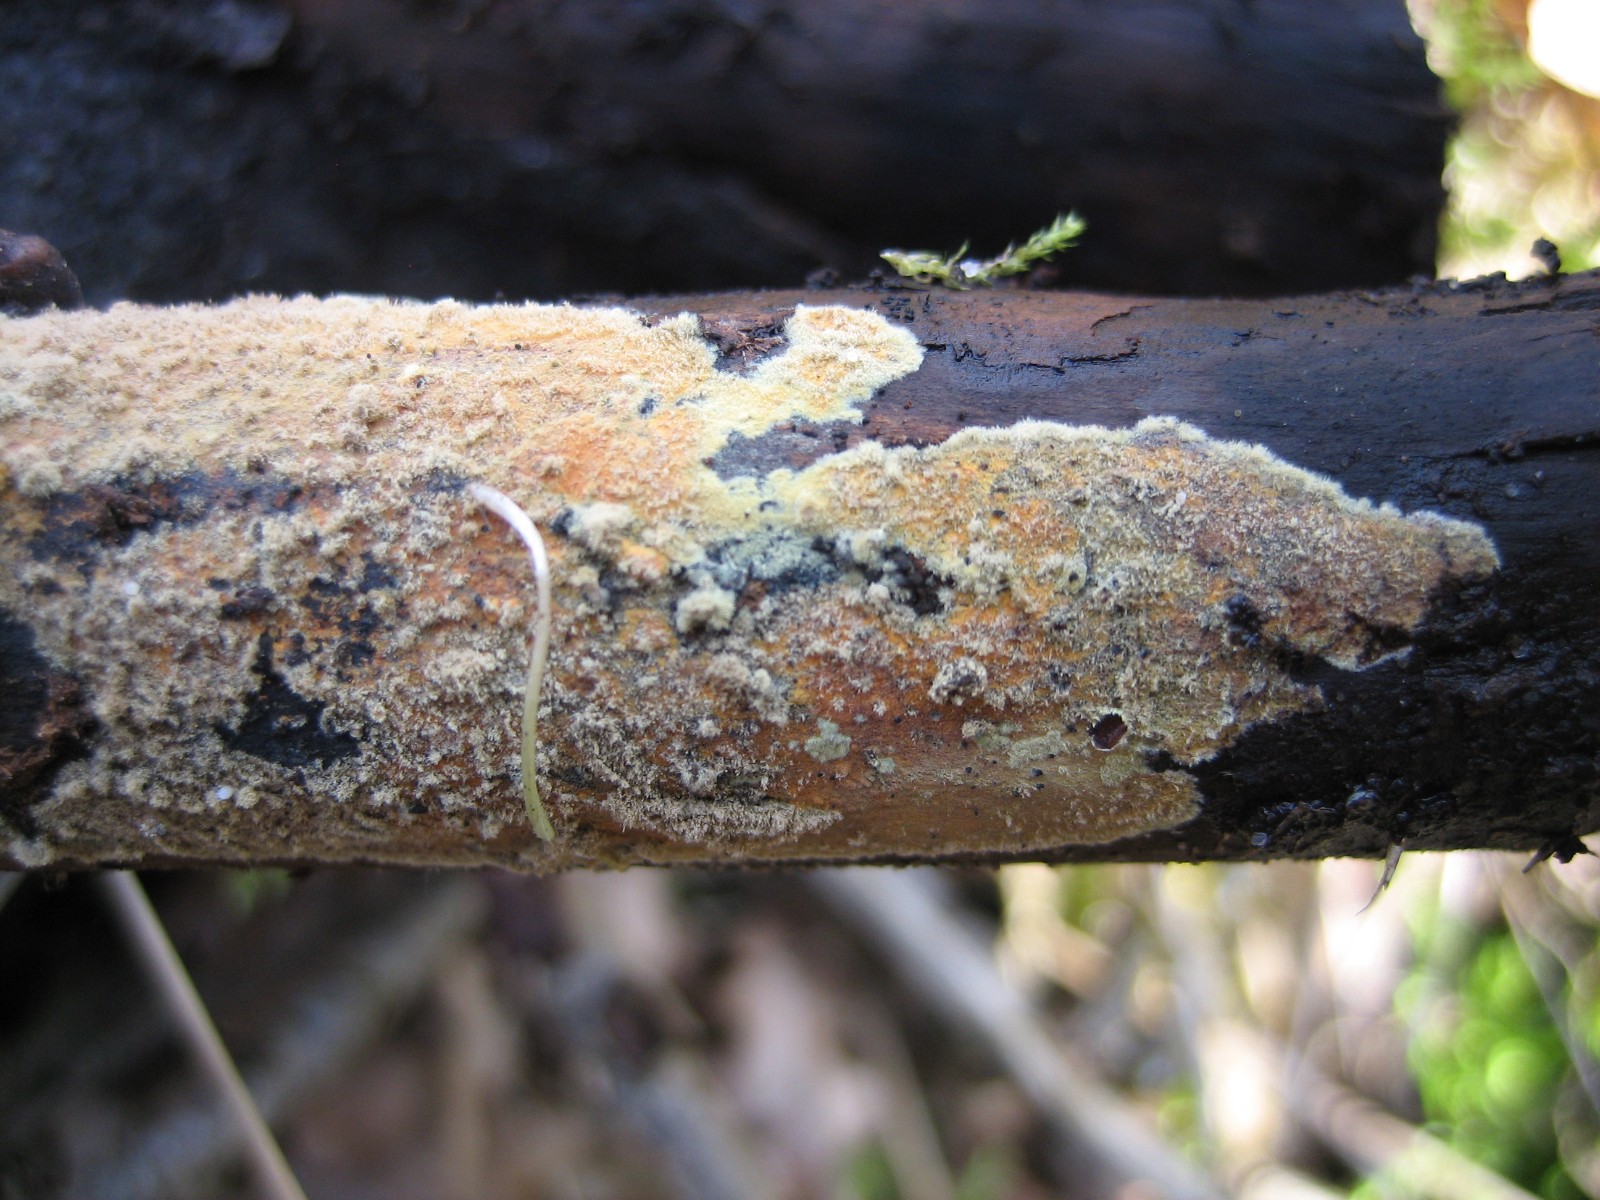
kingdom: Fungi
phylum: Basidiomycota
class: Agaricomycetes
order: Corticiales
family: Corticiaceae
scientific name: Corticiaceae
